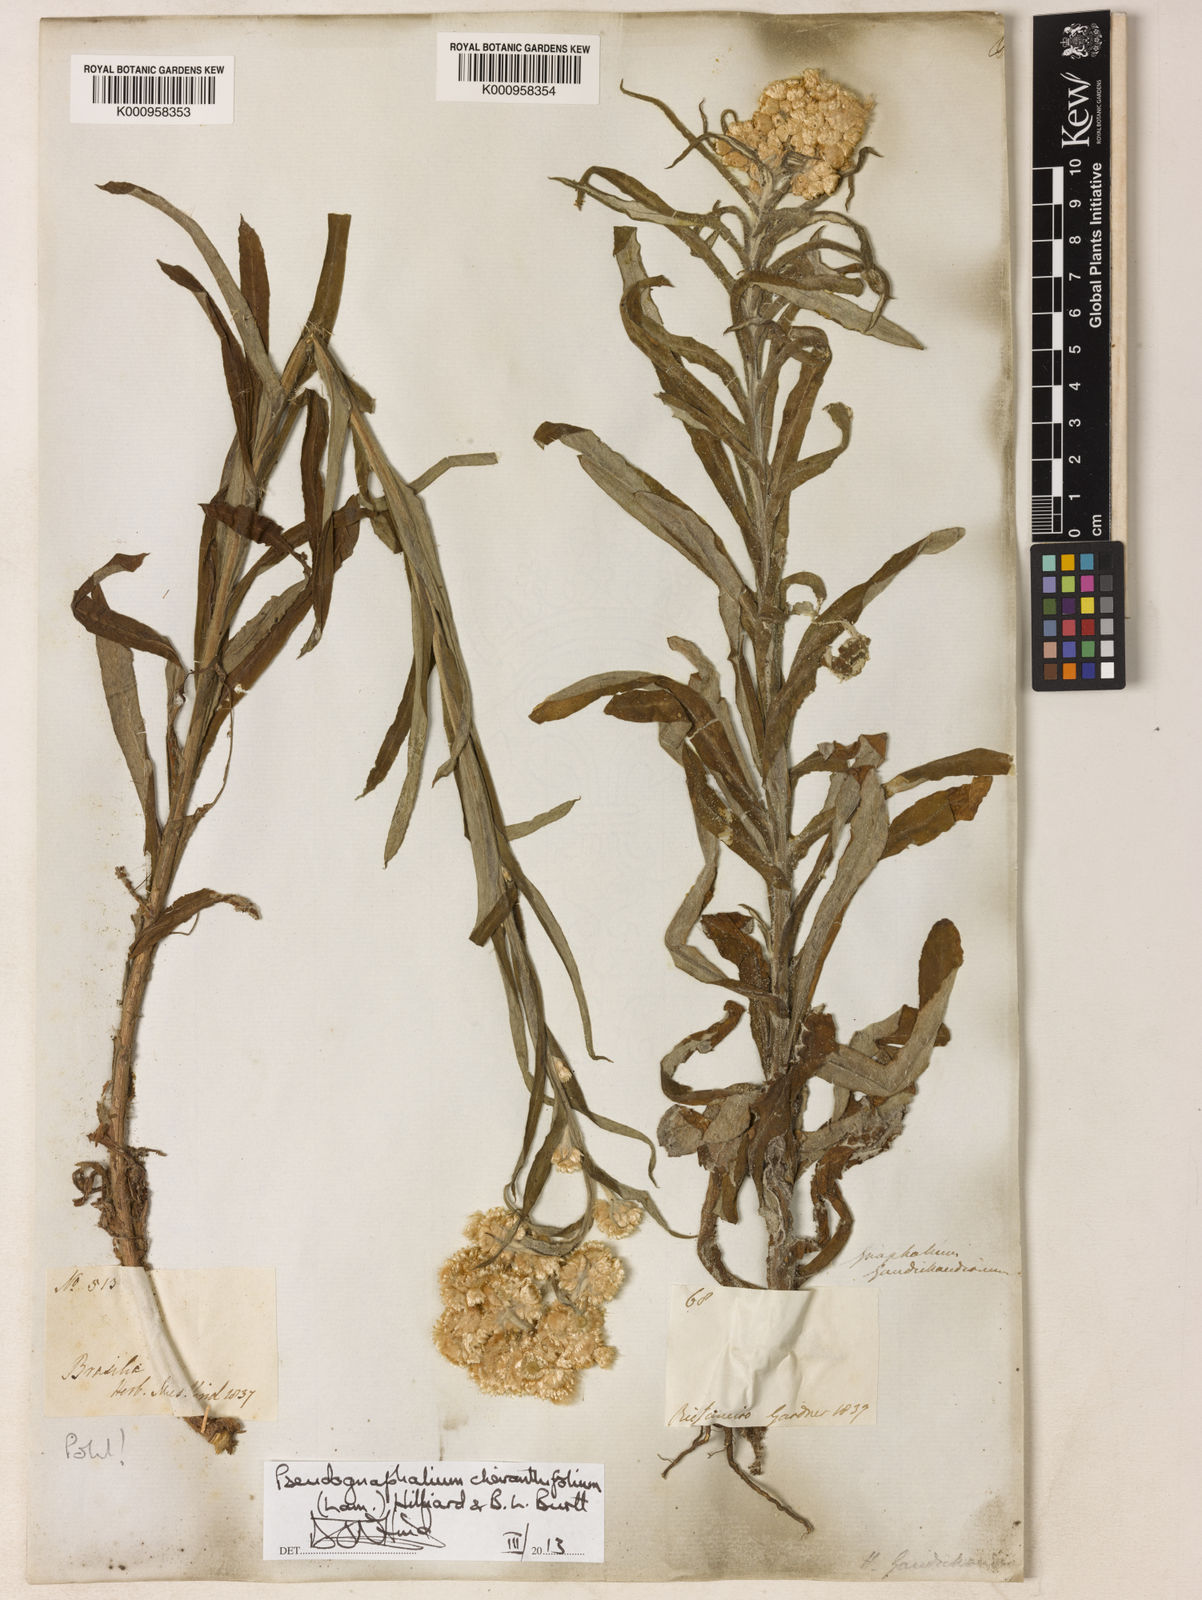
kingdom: Plantae
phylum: Tracheophyta
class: Magnoliopsida
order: Asterales
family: Asteraceae
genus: Pseudognaphalium
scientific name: Pseudognaphalium cheiranthifolium
